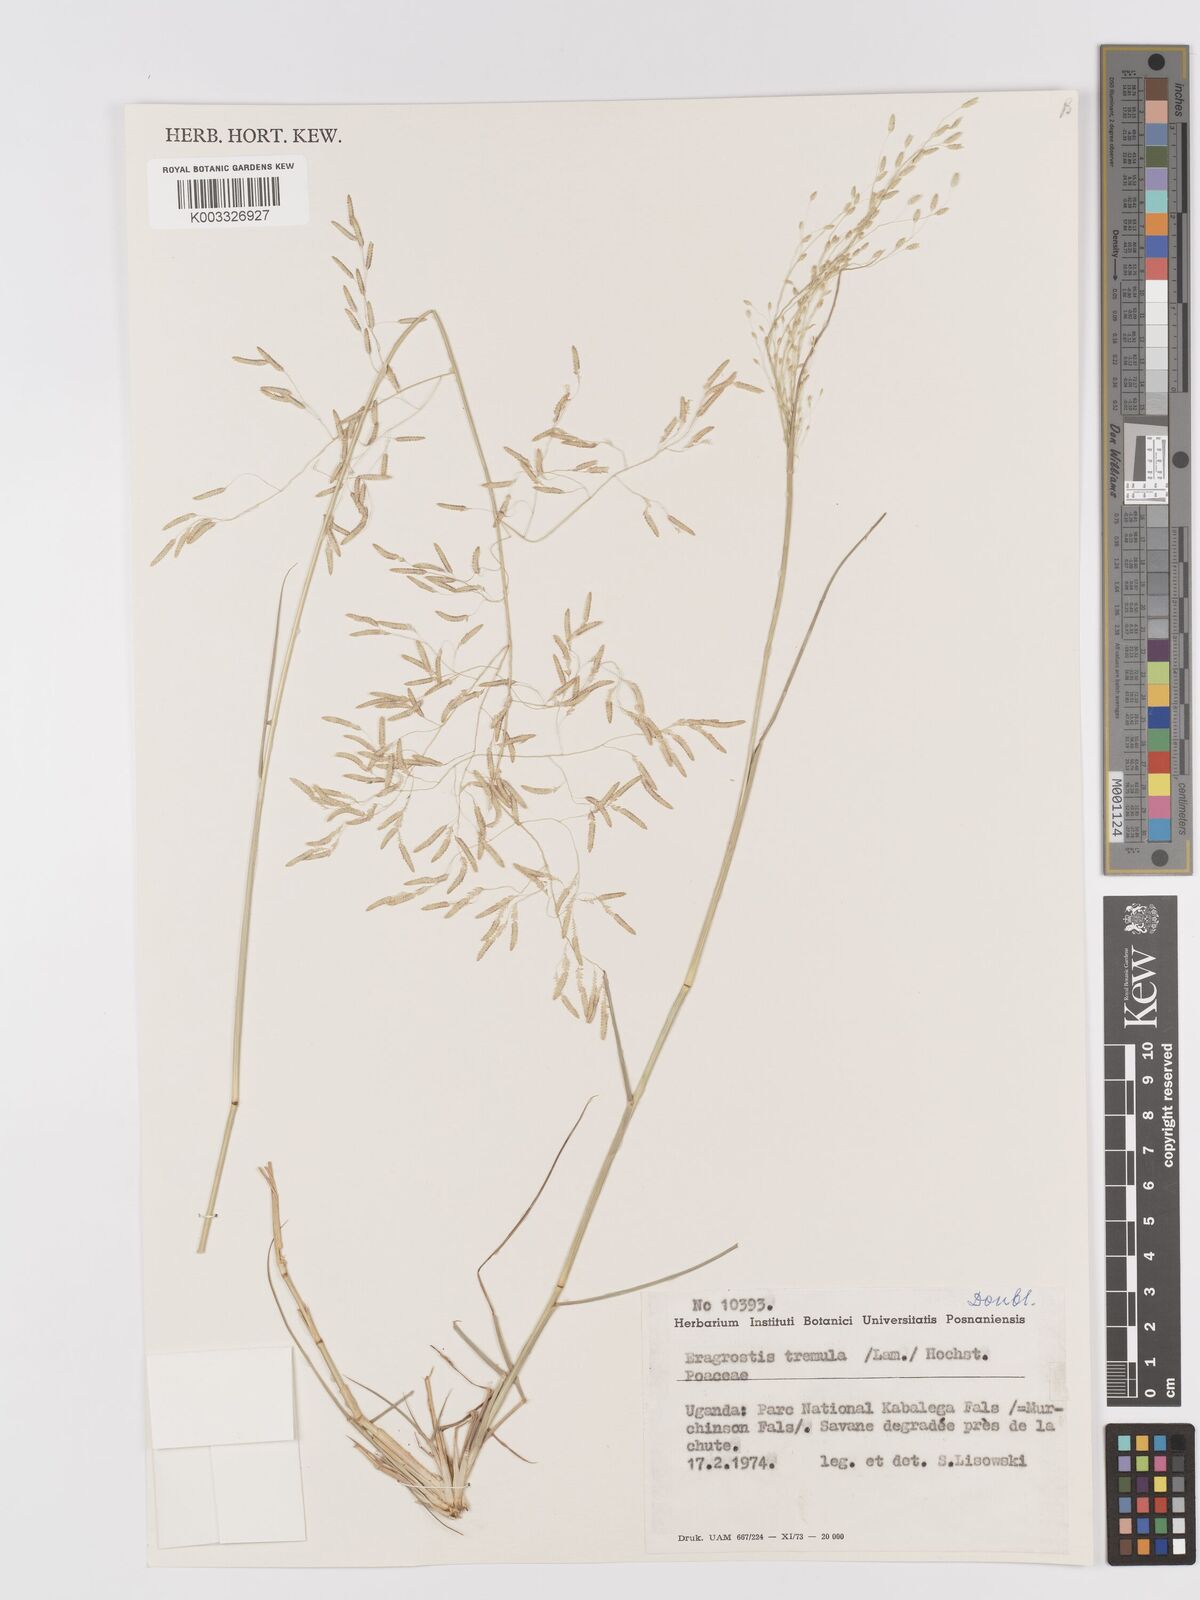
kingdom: Plantae
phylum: Tracheophyta
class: Liliopsida
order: Poales
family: Poaceae
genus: Eragrostis
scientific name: Eragrostis tremula
